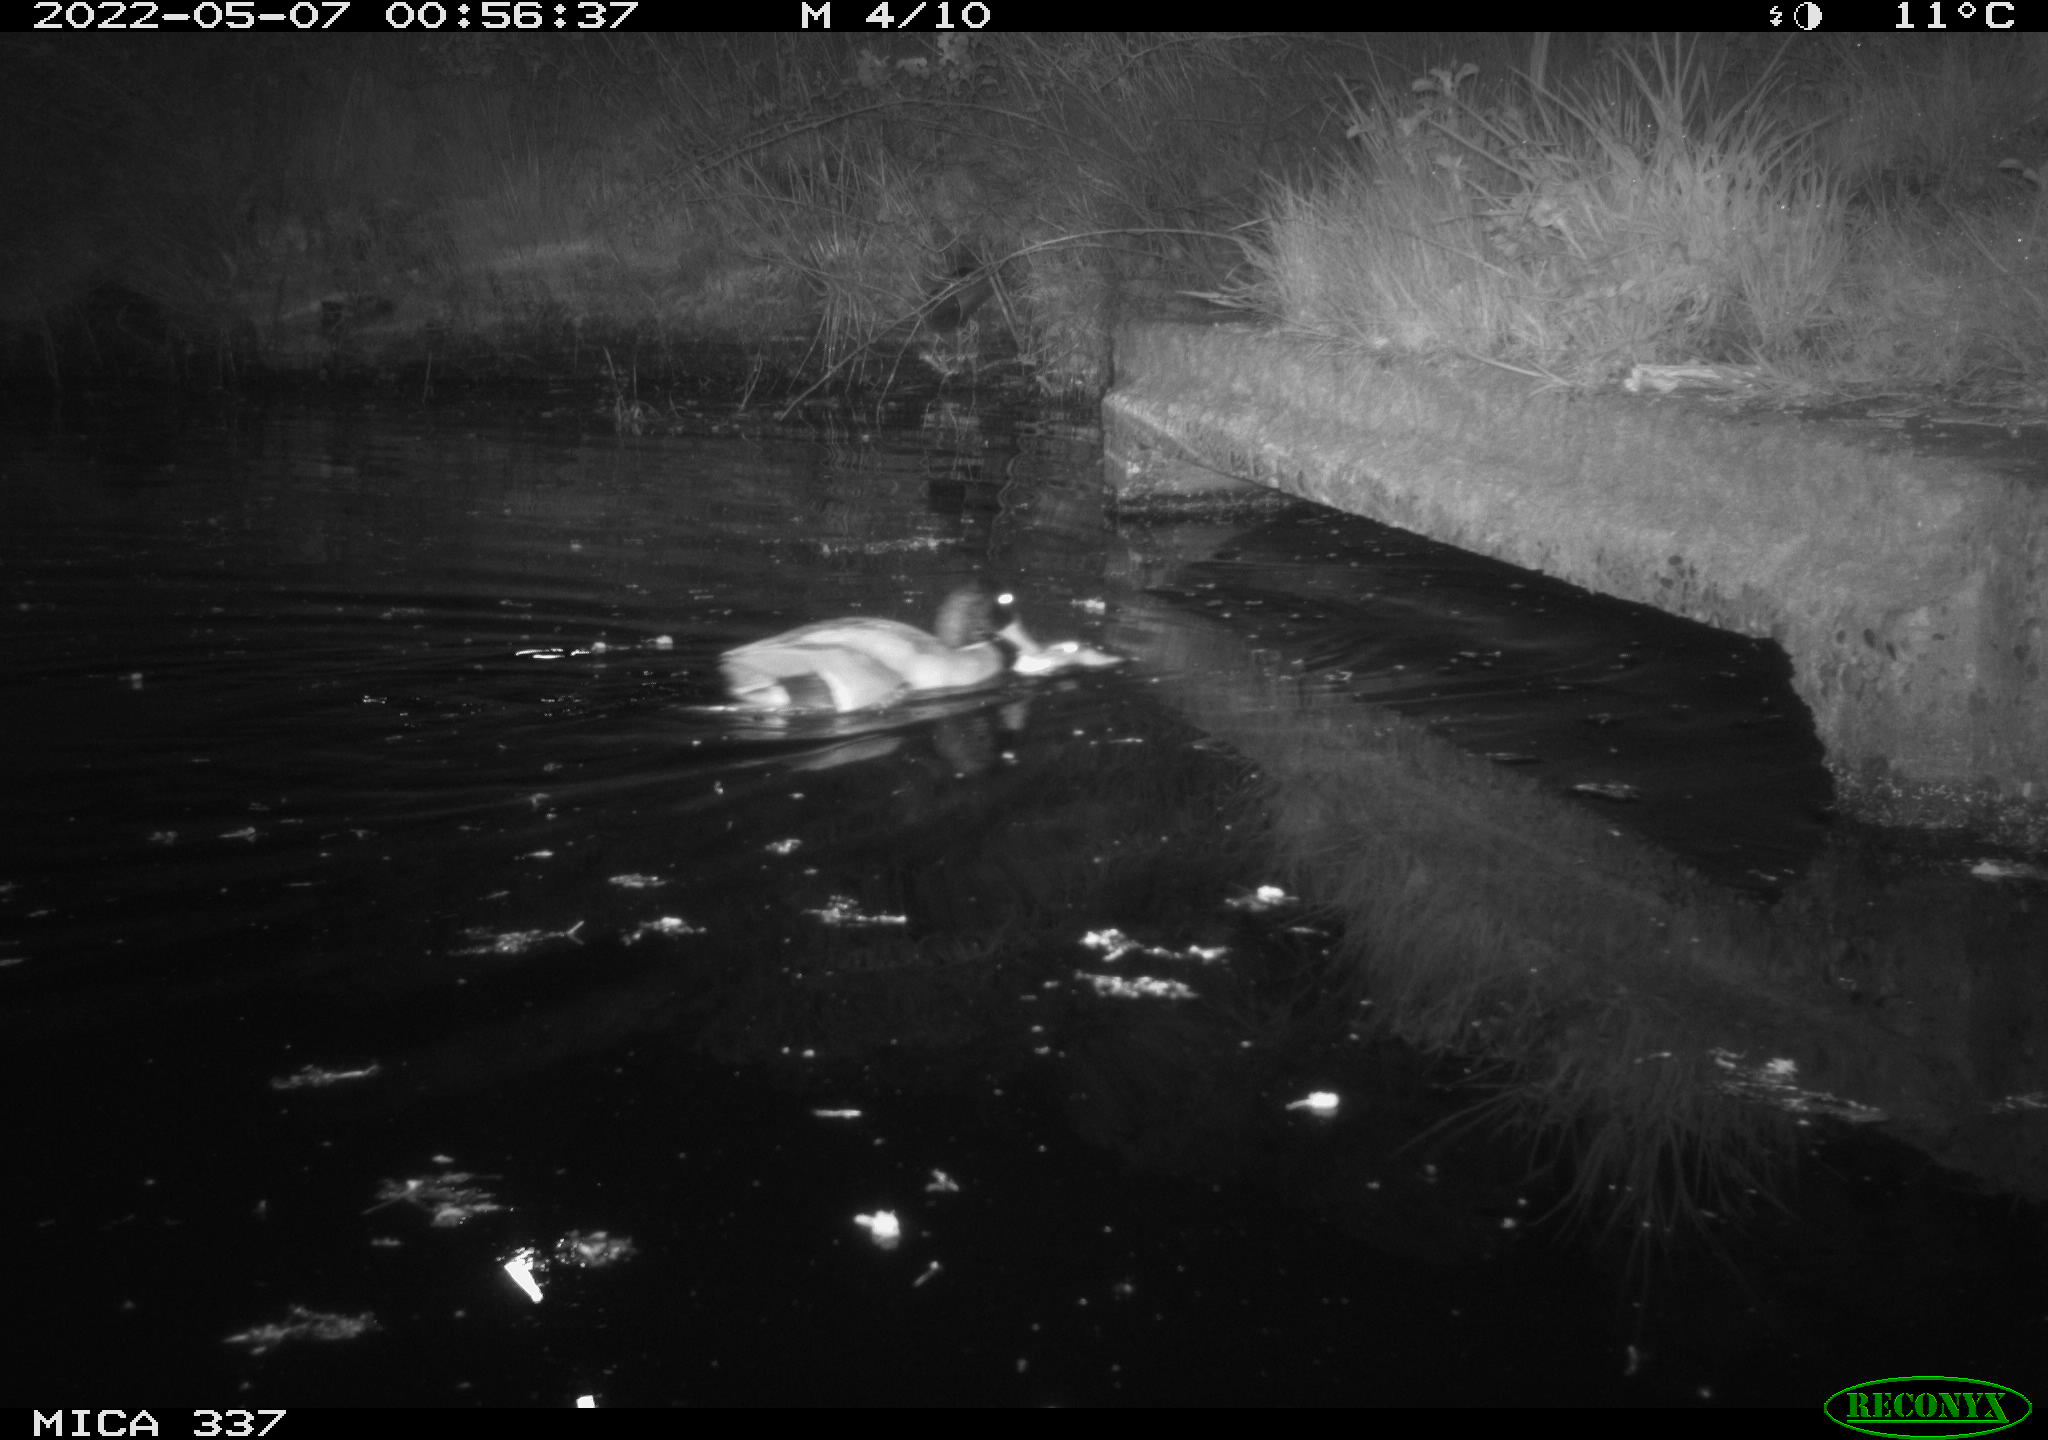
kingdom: Animalia
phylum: Chordata
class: Aves
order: Anseriformes
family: Anatidae
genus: Anas
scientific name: Anas platyrhynchos
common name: Mallard
